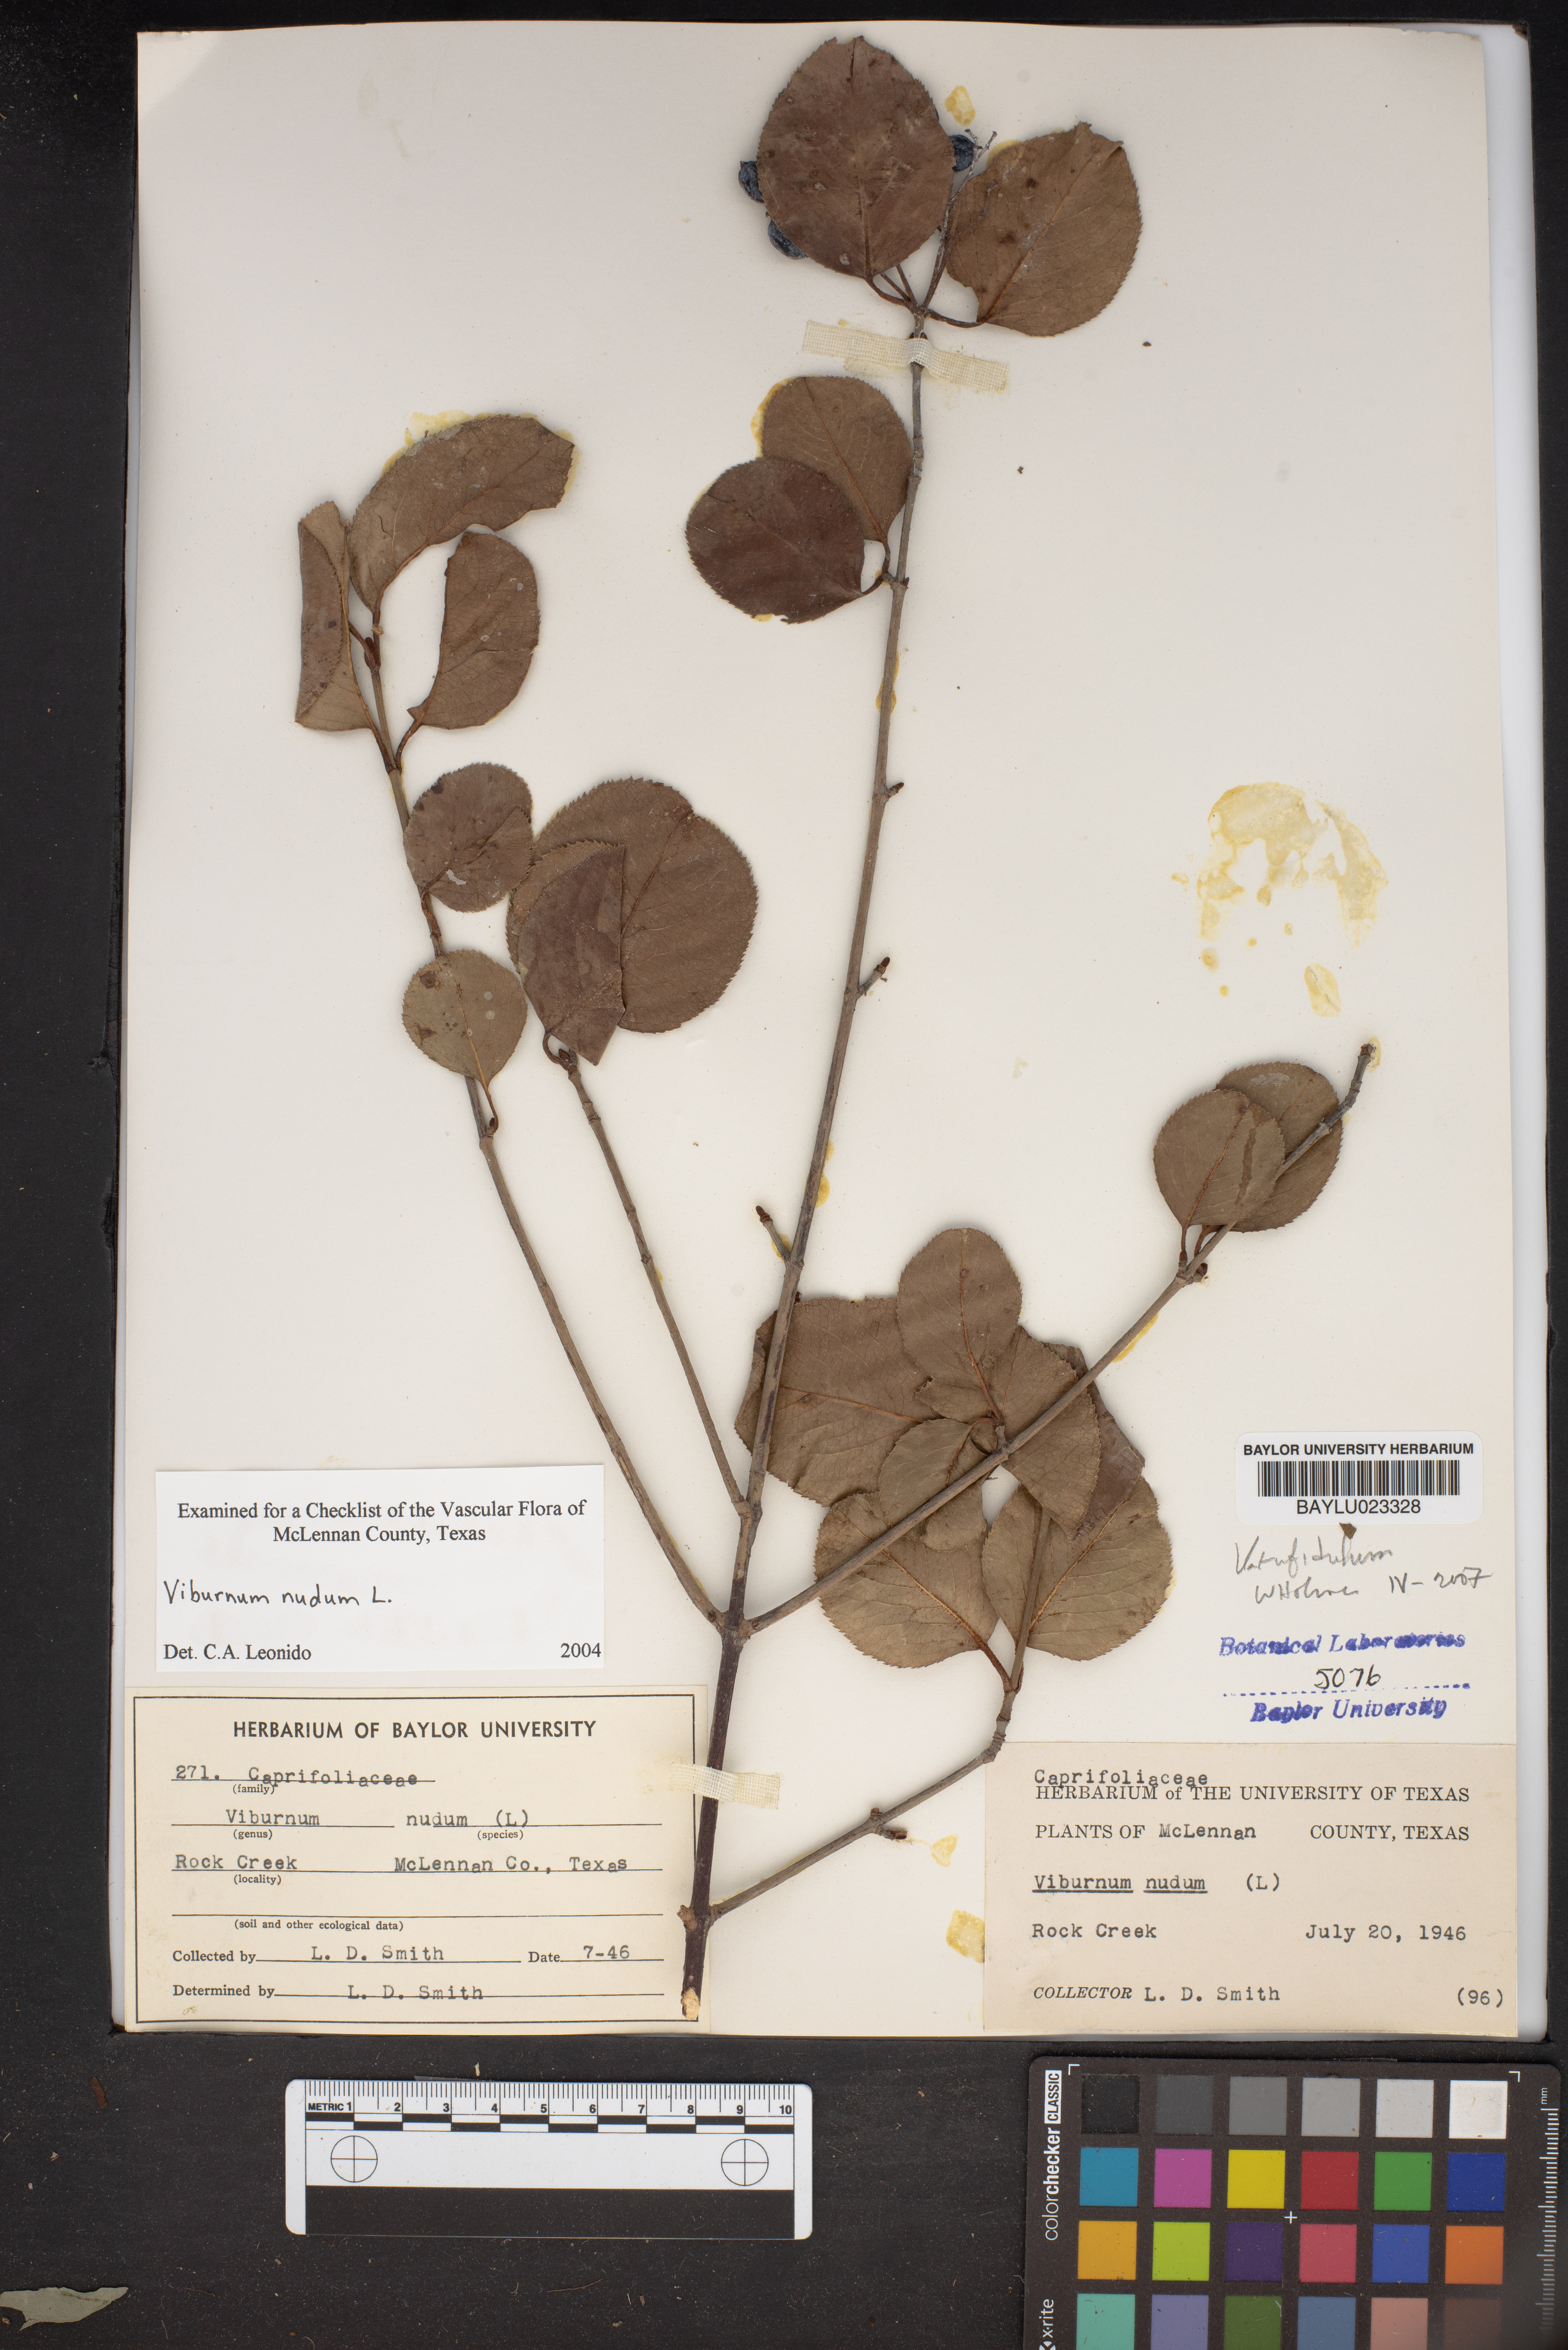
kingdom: Plantae
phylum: Tracheophyta
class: Magnoliopsida
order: Dipsacales
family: Viburnaceae
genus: Viburnum
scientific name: Viburnum nudum
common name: Possum haw
